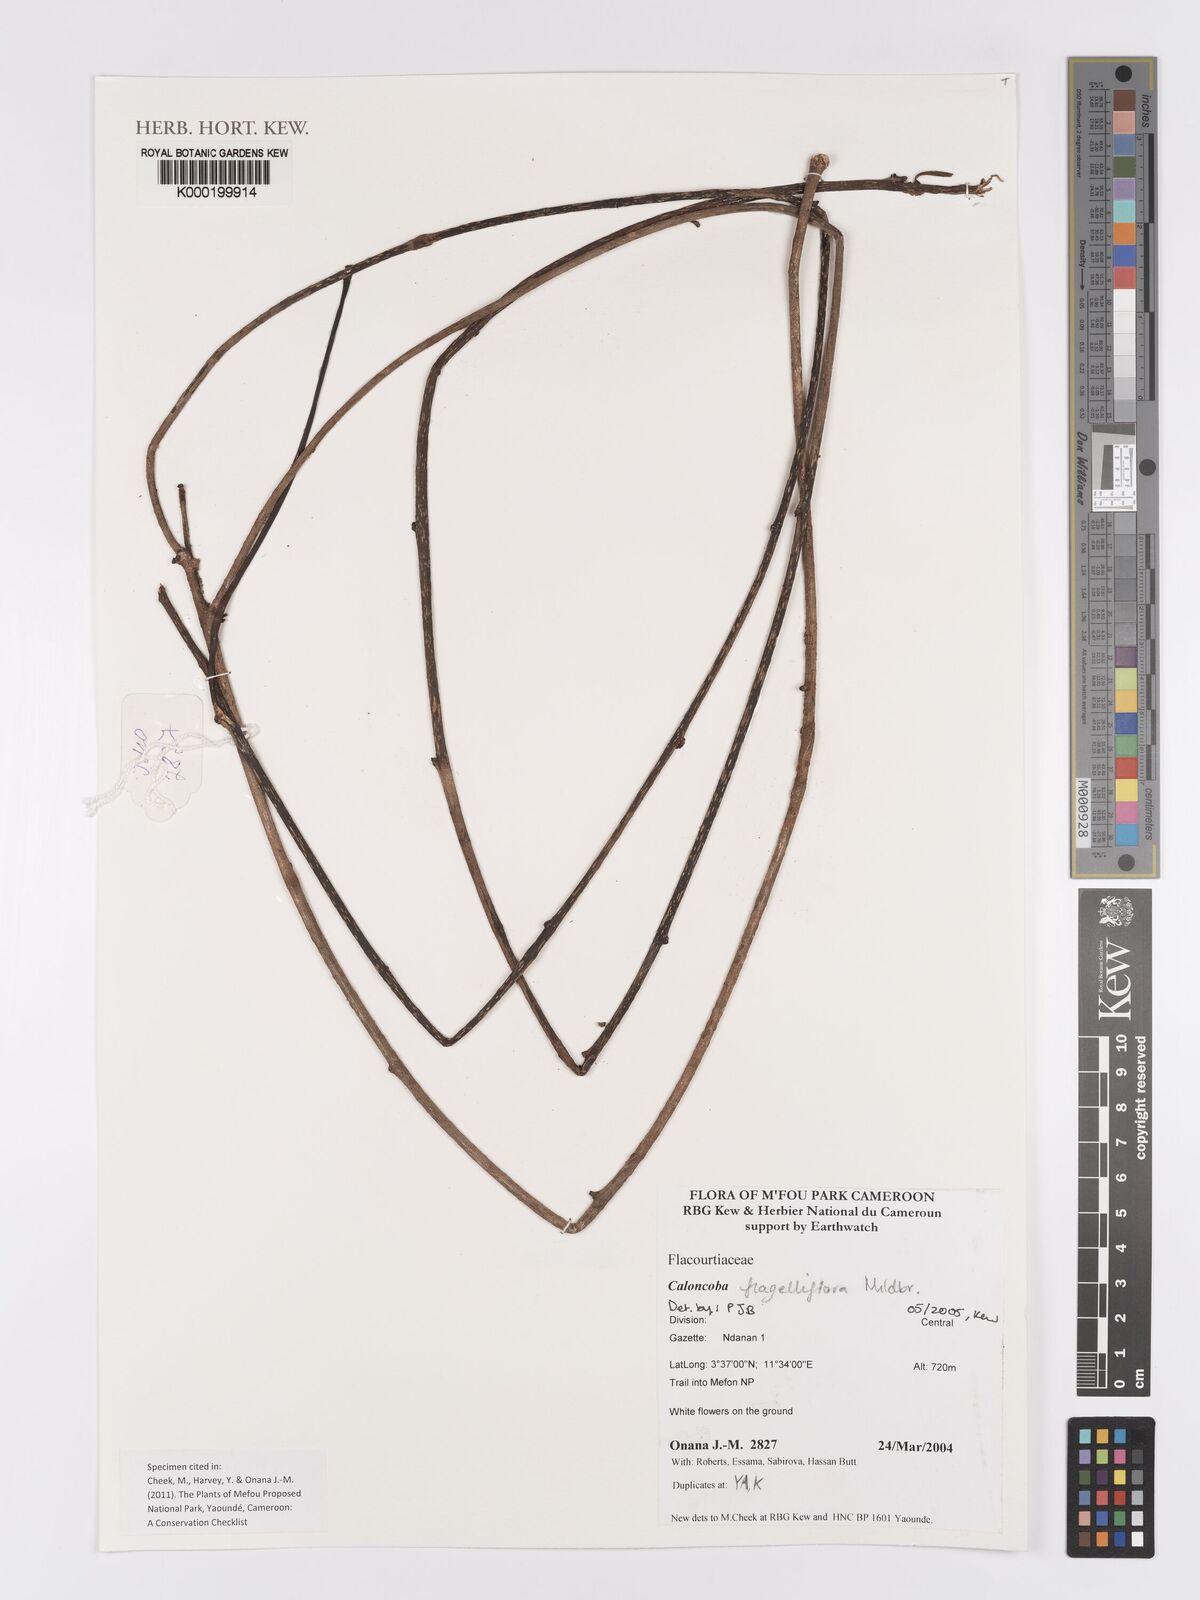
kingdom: Plantae
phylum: Tracheophyta
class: Magnoliopsida
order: Malpighiales
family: Achariaceae
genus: Caloncoba
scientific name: Caloncoba flagelliflora
